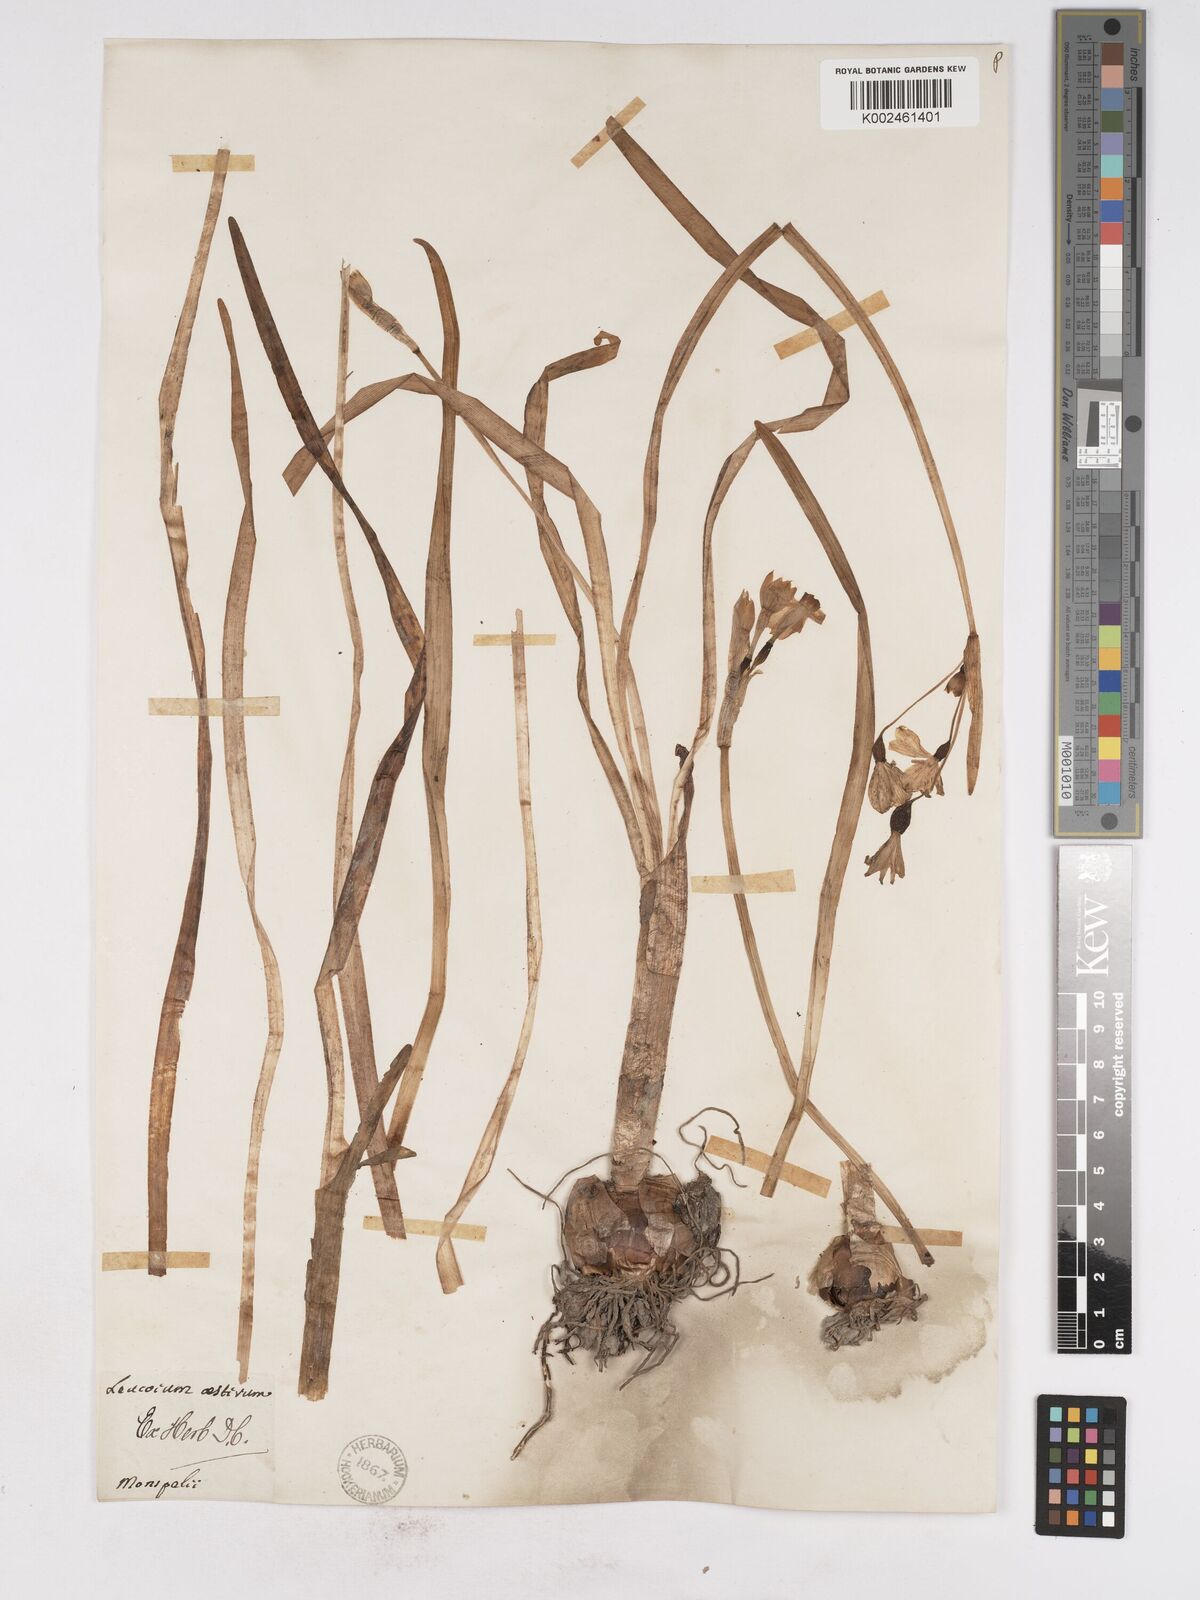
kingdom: Plantae
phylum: Tracheophyta
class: Liliopsida
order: Asparagales
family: Amaryllidaceae
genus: Leucojum
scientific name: Leucojum aestivum
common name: Summer snowflake
